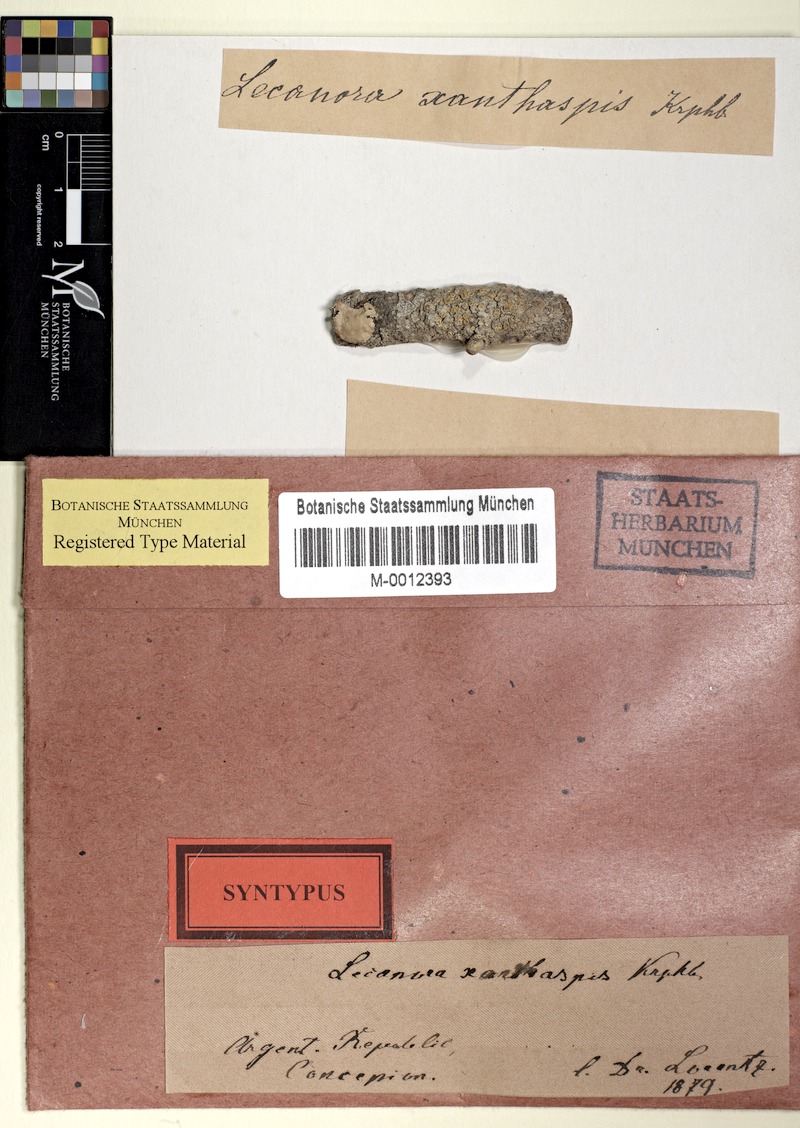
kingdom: Fungi
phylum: Ascomycota
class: Lecanoromycetes
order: Lecanorales
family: Ramalinaceae
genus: Lecania
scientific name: Lecania
